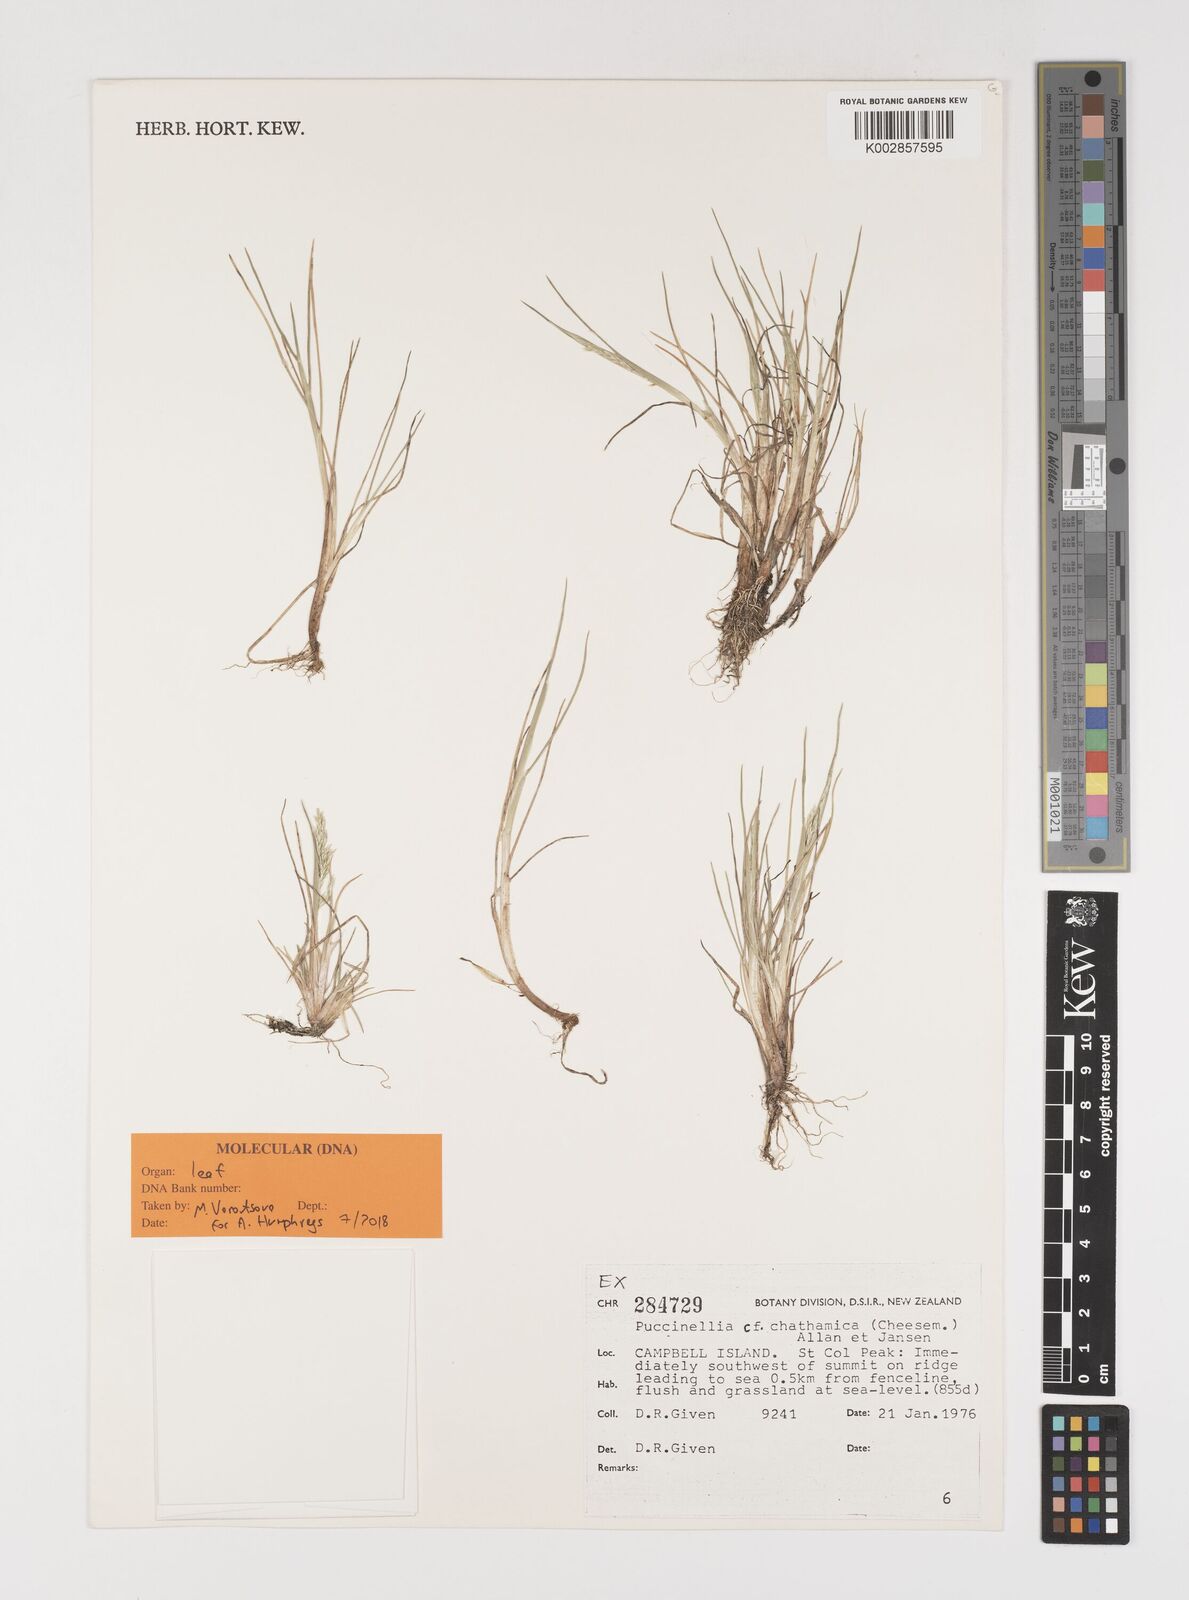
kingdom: Plantae
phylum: Tracheophyta
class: Liliopsida
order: Poales
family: Poaceae
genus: Puccinellia
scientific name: Puccinellia walkeri
